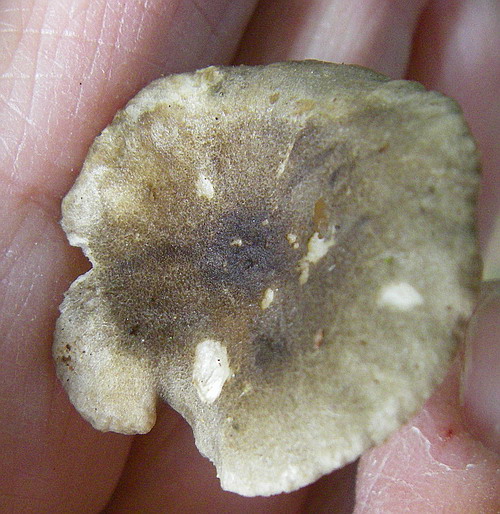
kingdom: Fungi
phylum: Basidiomycota
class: Agaricomycetes
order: Agaricales
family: Hygrophoraceae
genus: Spodocybe
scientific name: Spodocybe trulliformis
